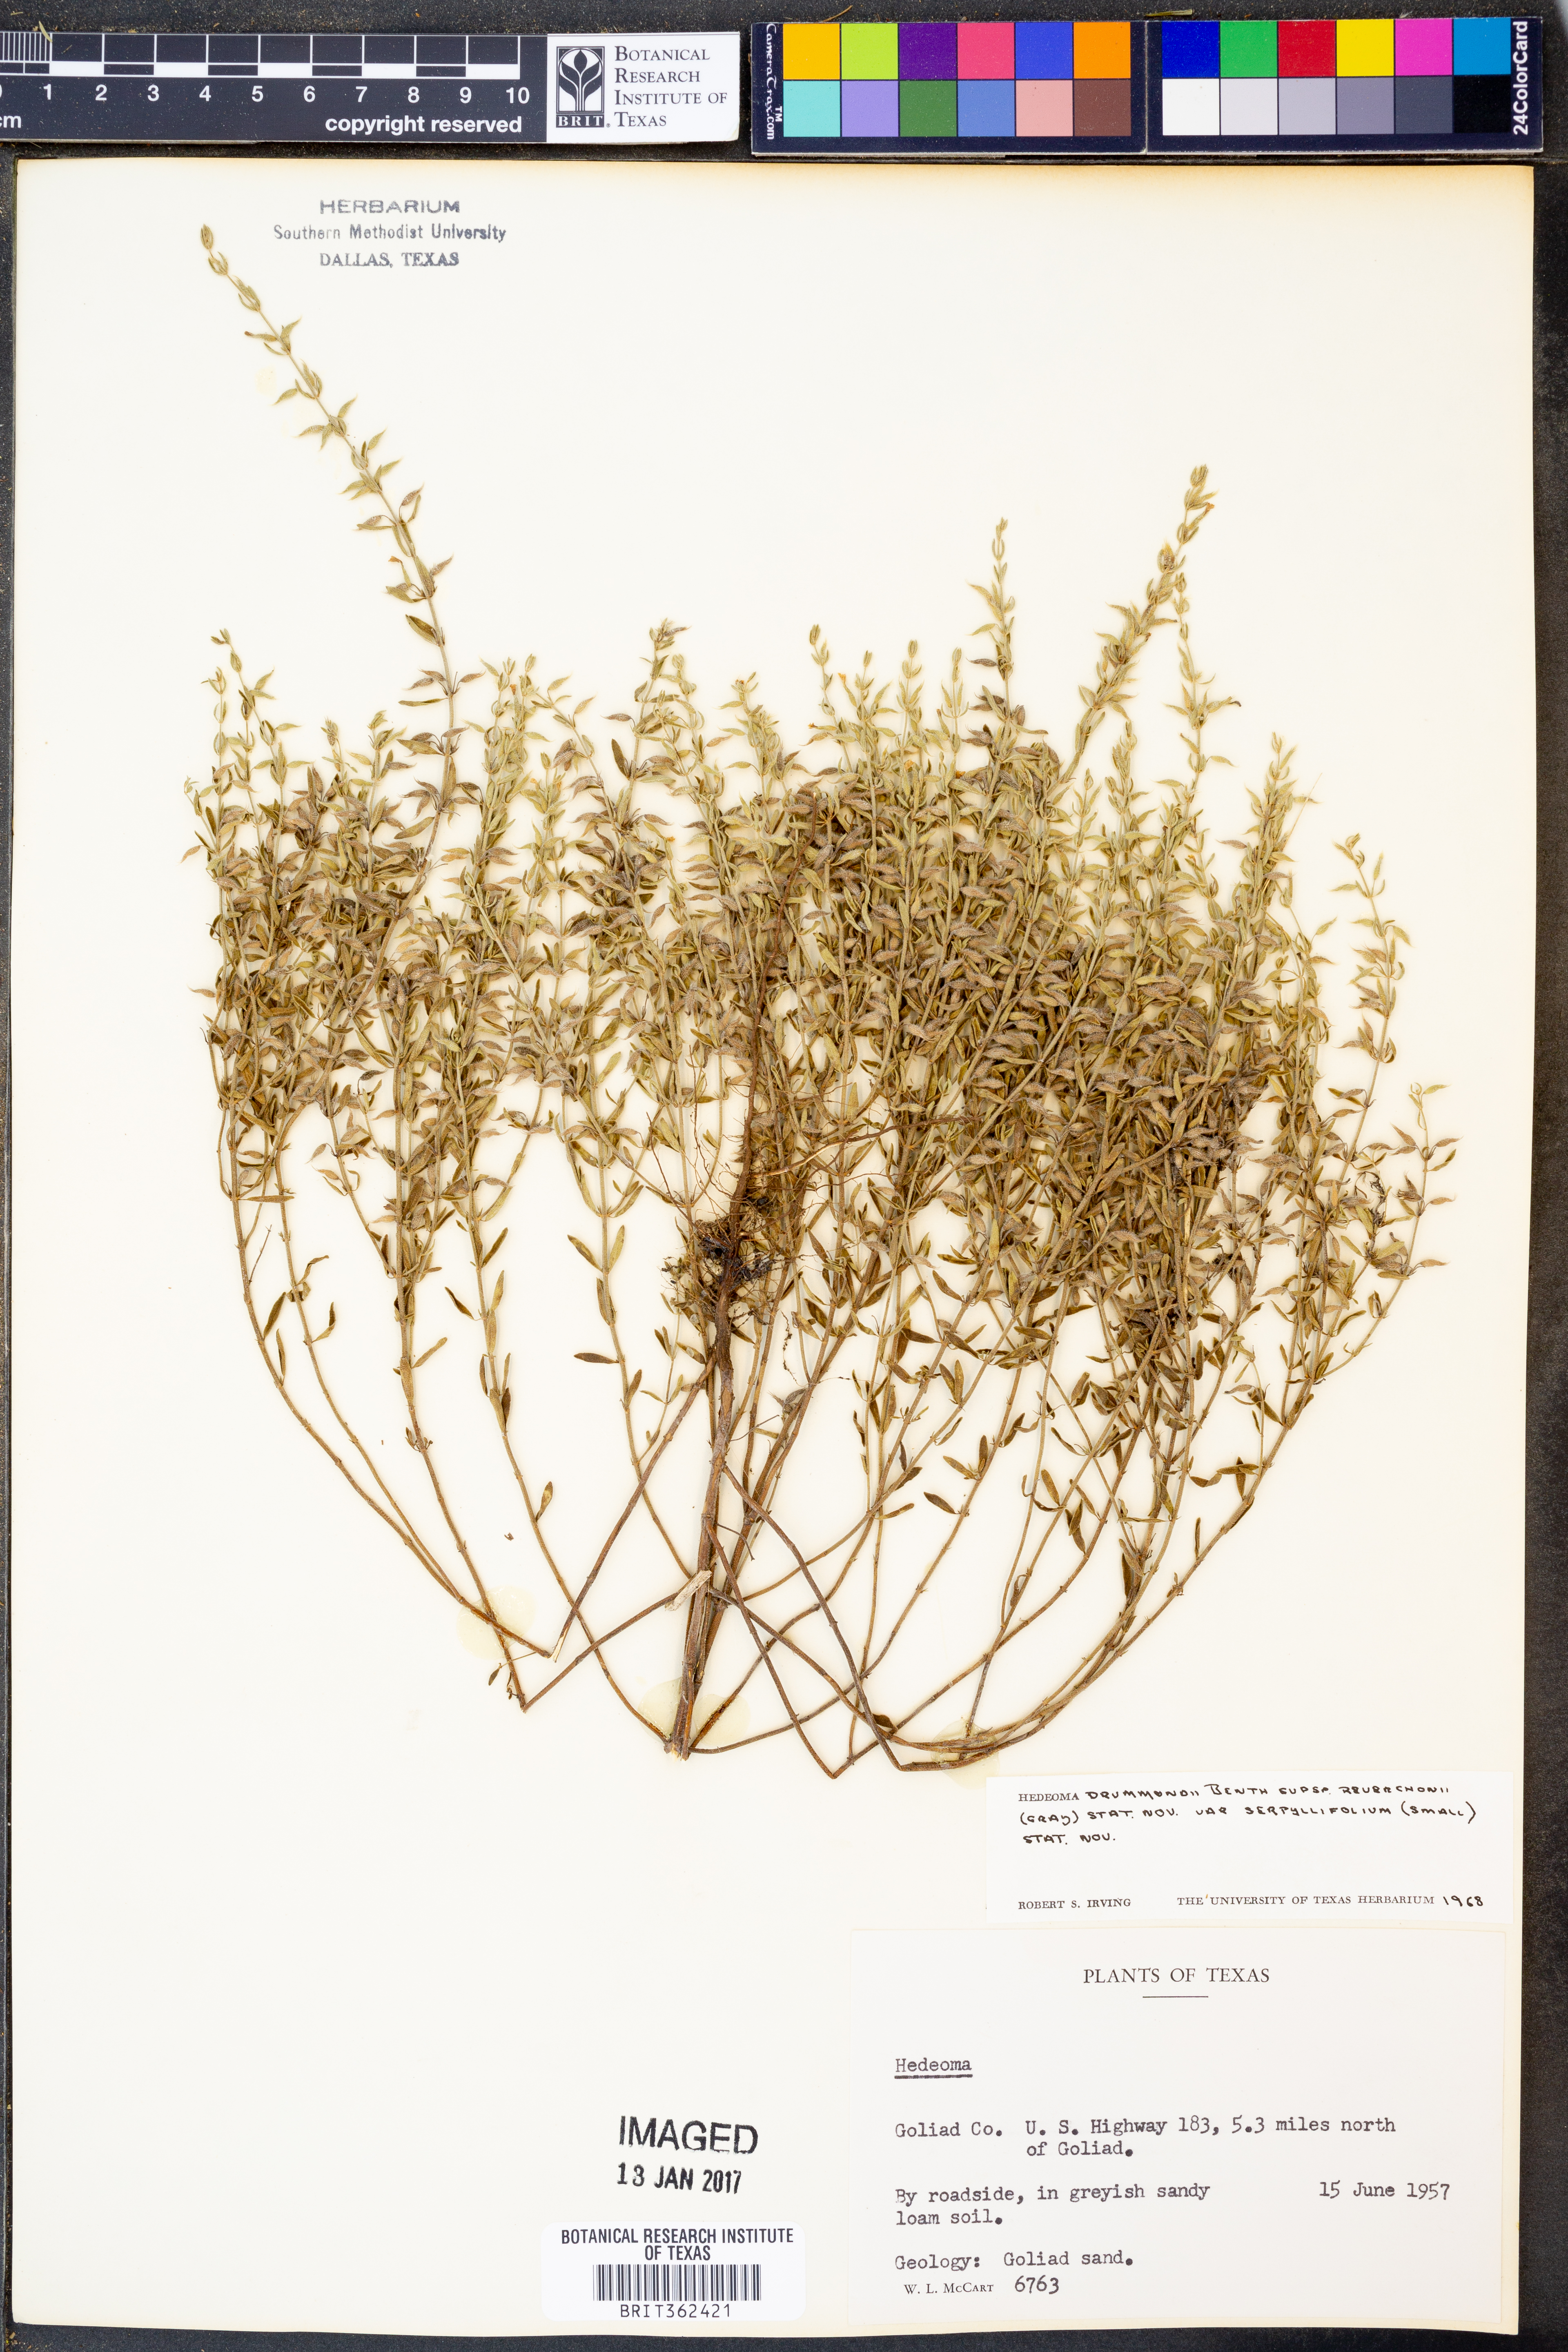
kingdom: Plantae
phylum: Tracheophyta
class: Magnoliopsida
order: Lamiales
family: Lamiaceae
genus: Hedeoma
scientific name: Hedeoma drummondii
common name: New mexico pennyroyal
